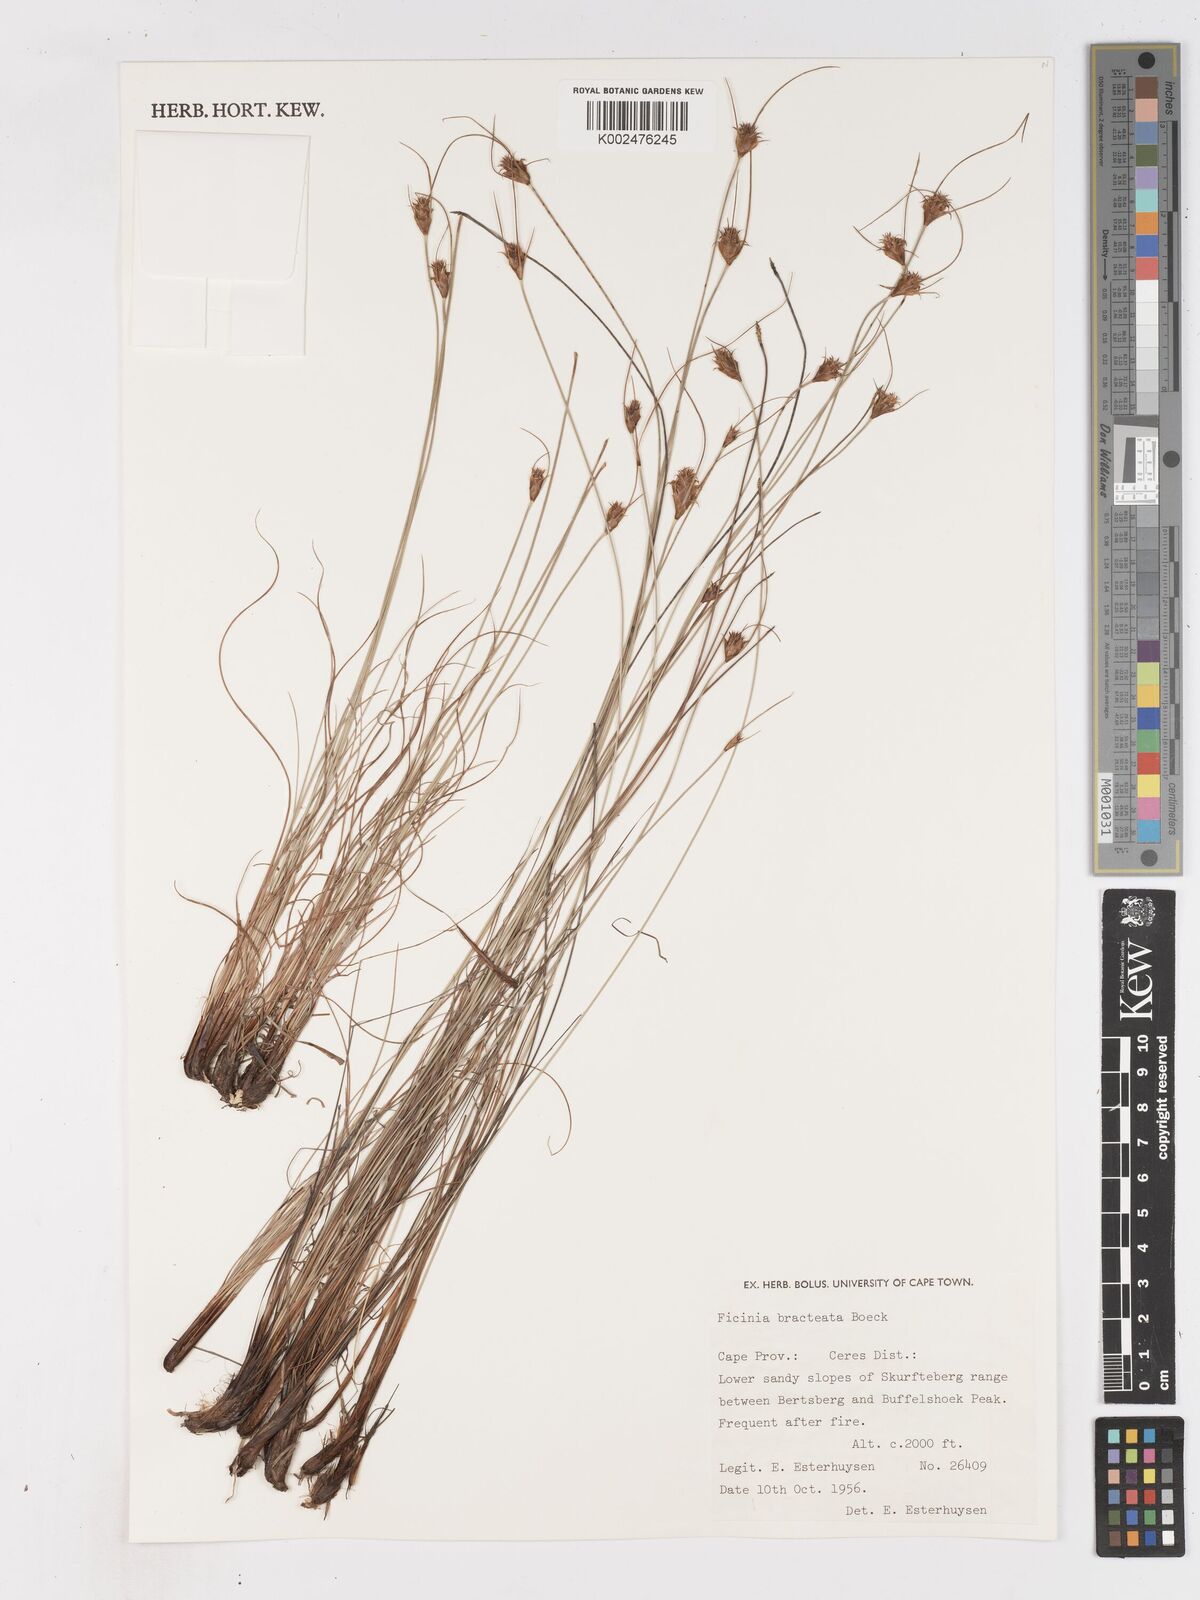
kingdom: Plantae
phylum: Tracheophyta
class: Liliopsida
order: Poales
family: Cyperaceae
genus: Ficinia
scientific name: Ficinia nigrescens
